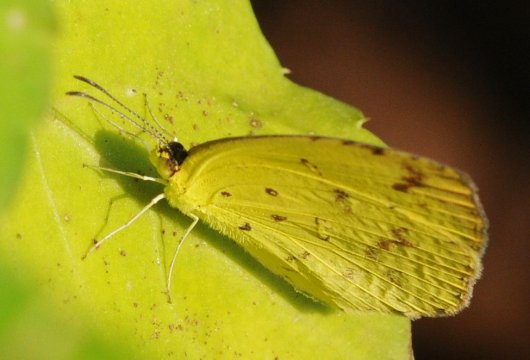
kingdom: Animalia
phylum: Arthropoda
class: Insecta
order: Lepidoptera
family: Pieridae
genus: Eurema
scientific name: Eurema desjardinsii
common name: Angled Grass Yellow
